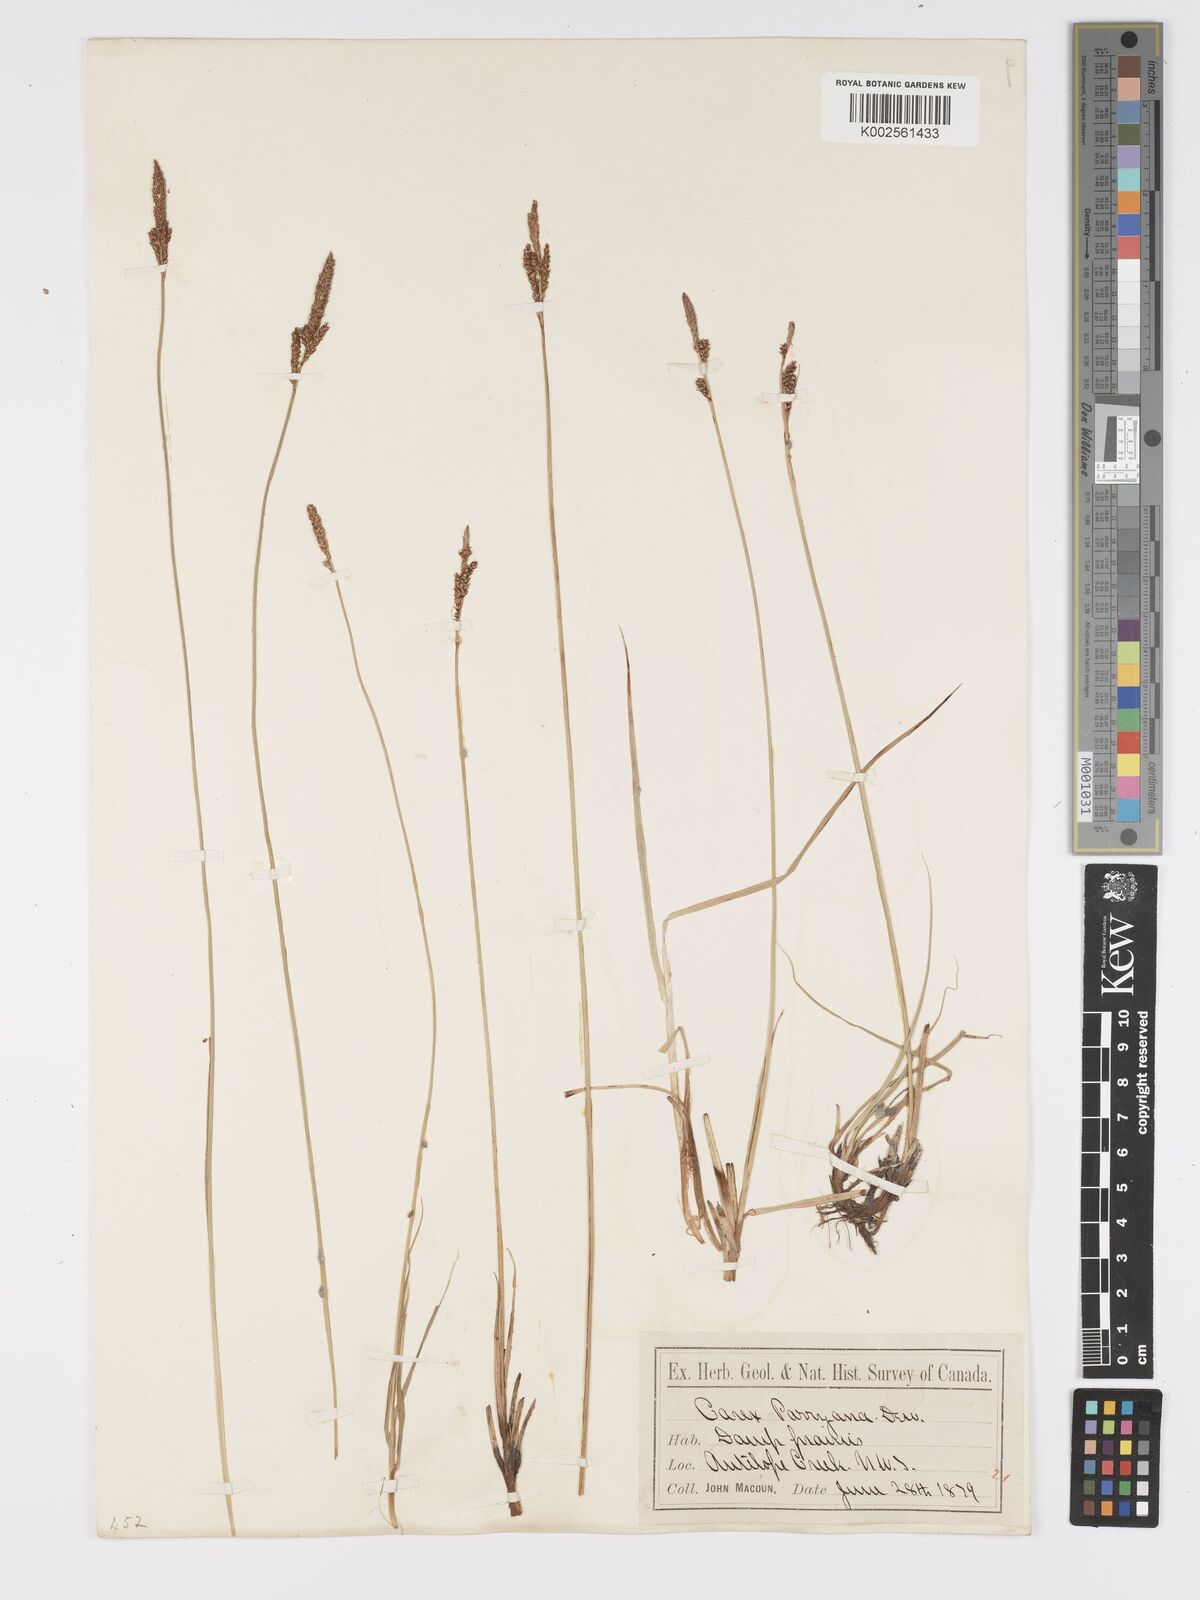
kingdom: Plantae
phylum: Tracheophyta
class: Liliopsida
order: Poales
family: Cyperaceae
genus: Carex
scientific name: Carex parryana
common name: Parry's sedge
